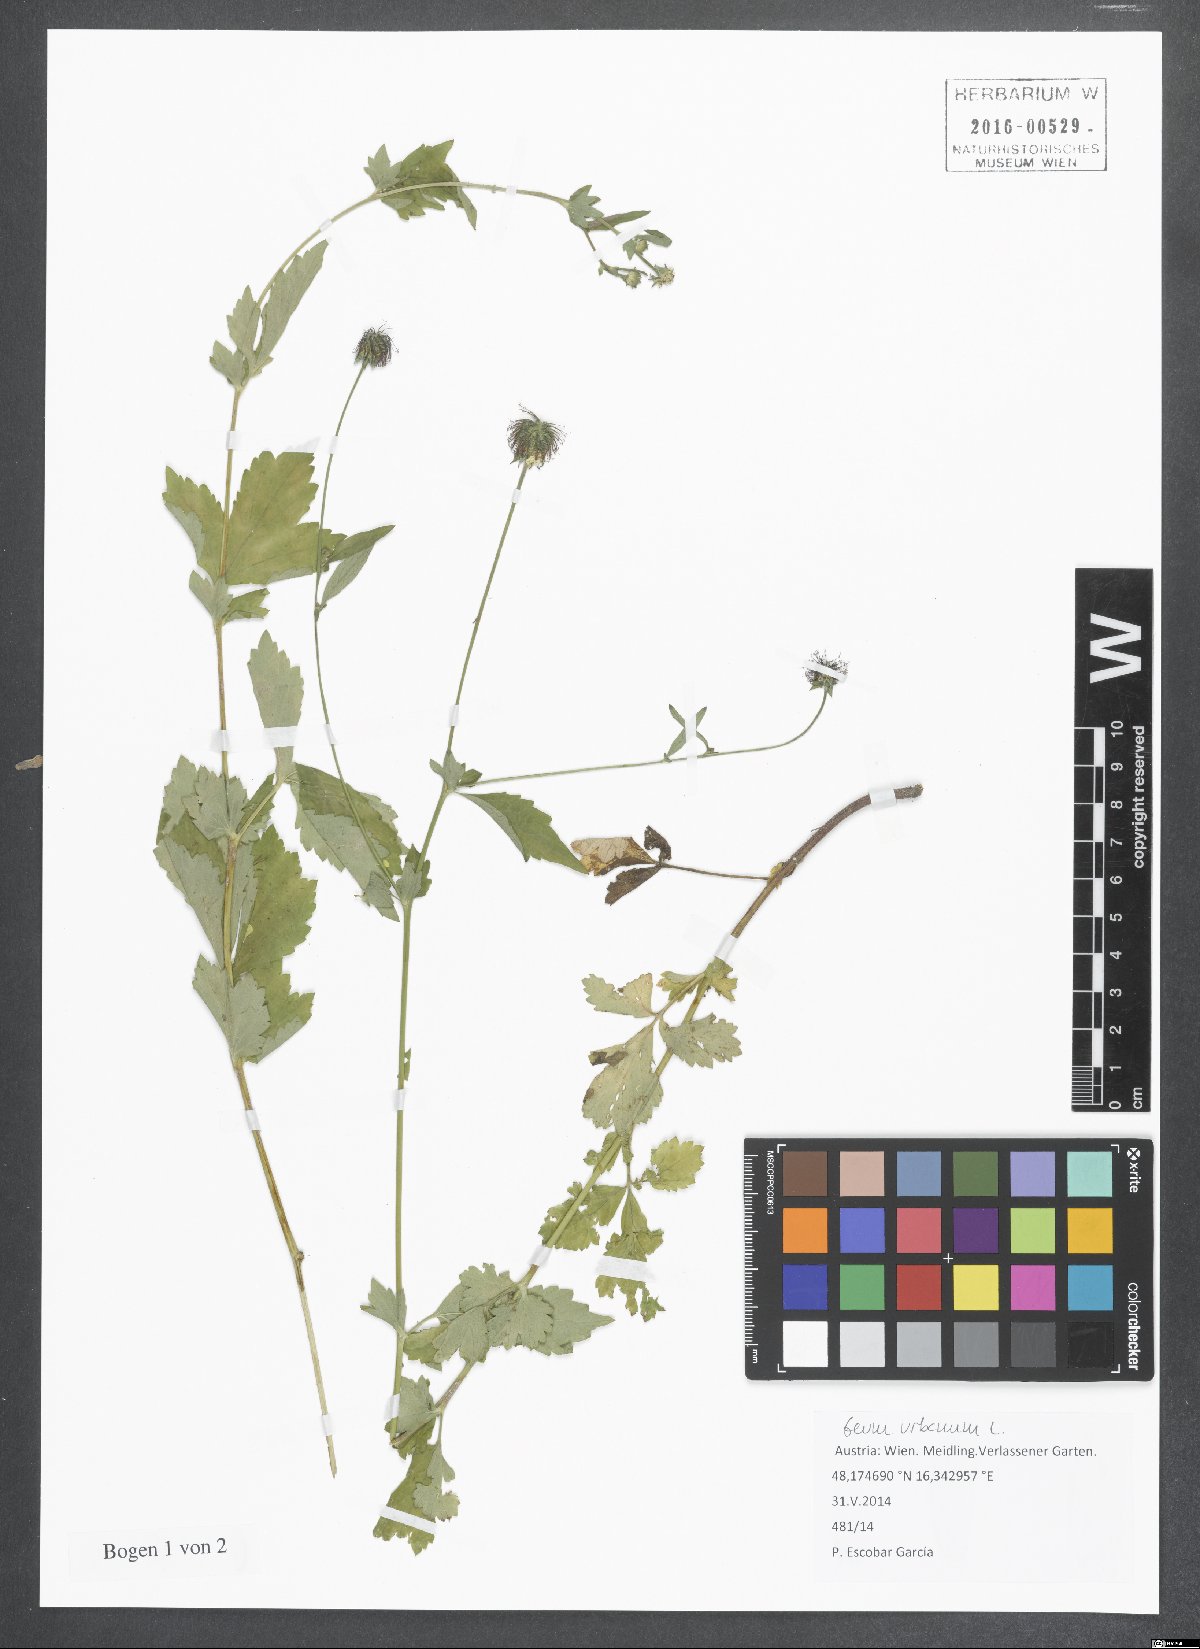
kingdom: Plantae
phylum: Tracheophyta
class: Magnoliopsida
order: Rosales
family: Rosaceae
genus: Geum
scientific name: Geum urbanum
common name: Wood avens
